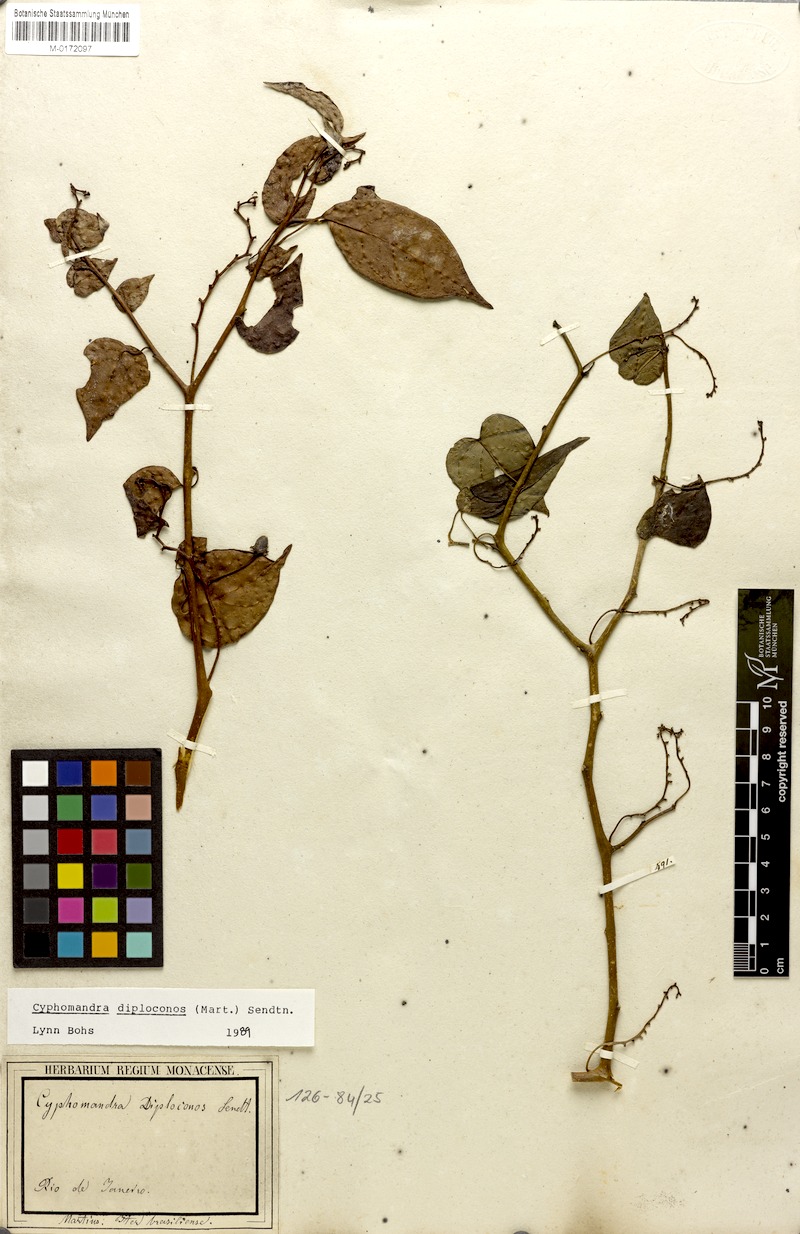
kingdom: Plantae
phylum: Tracheophyta
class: Magnoliopsida
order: Solanales
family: Solanaceae
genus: Solanum
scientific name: Solanum diploconos
